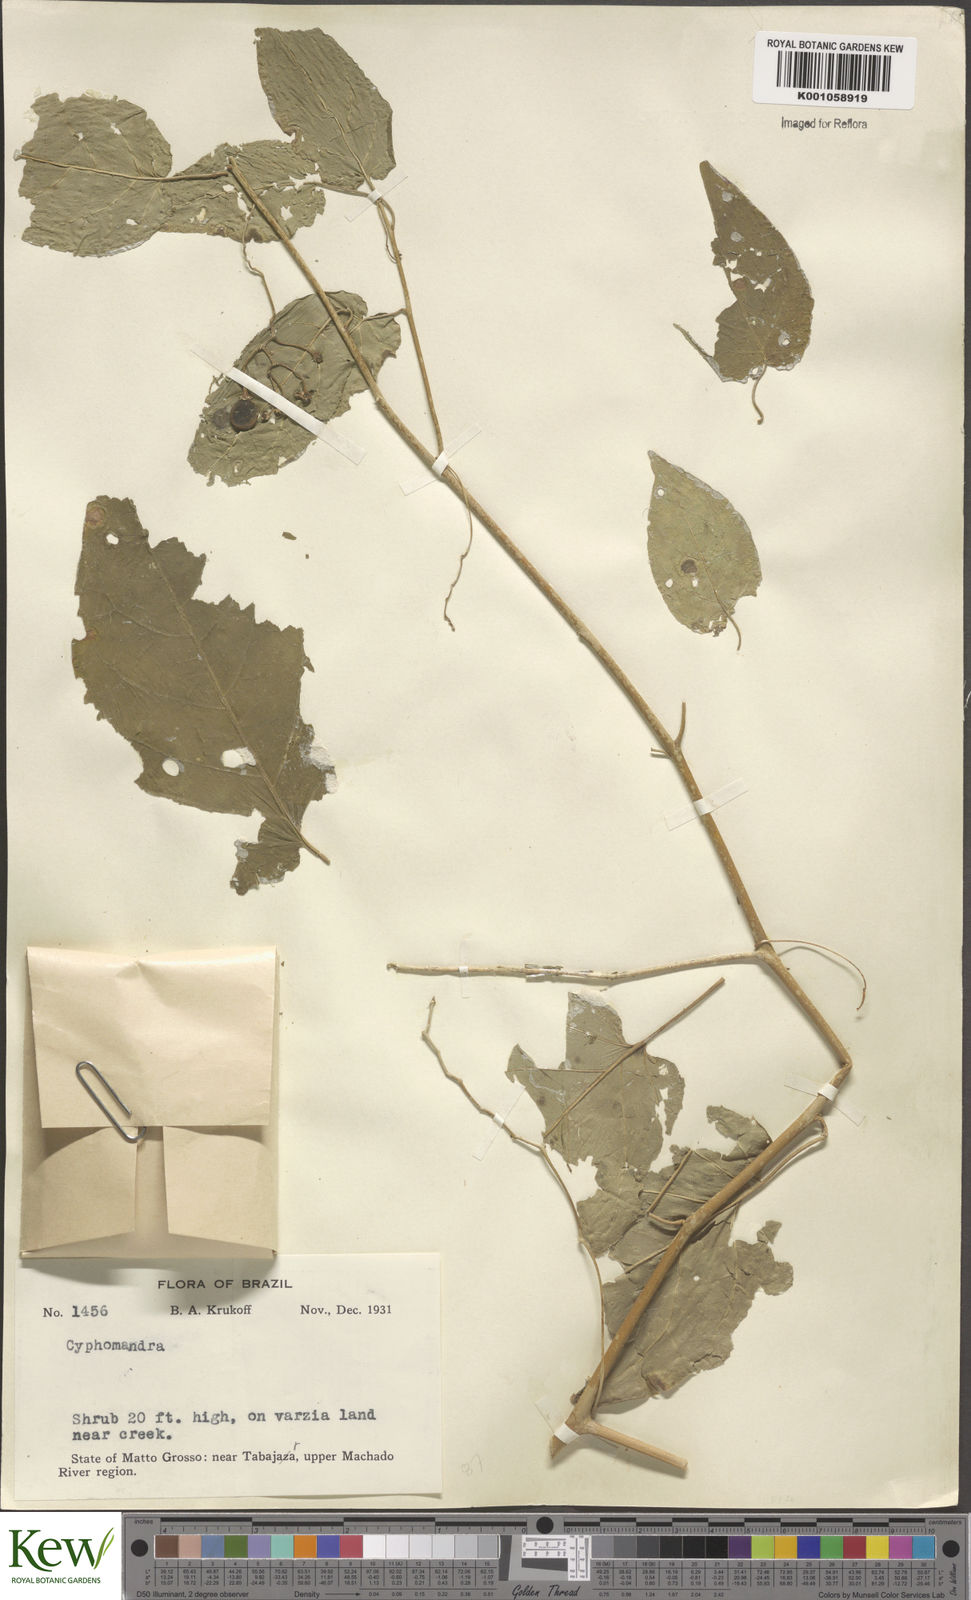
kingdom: Plantae
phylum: Tracheophyta
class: Magnoliopsida
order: Solanales
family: Solanaceae
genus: Solanum
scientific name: Solanum pendulum
